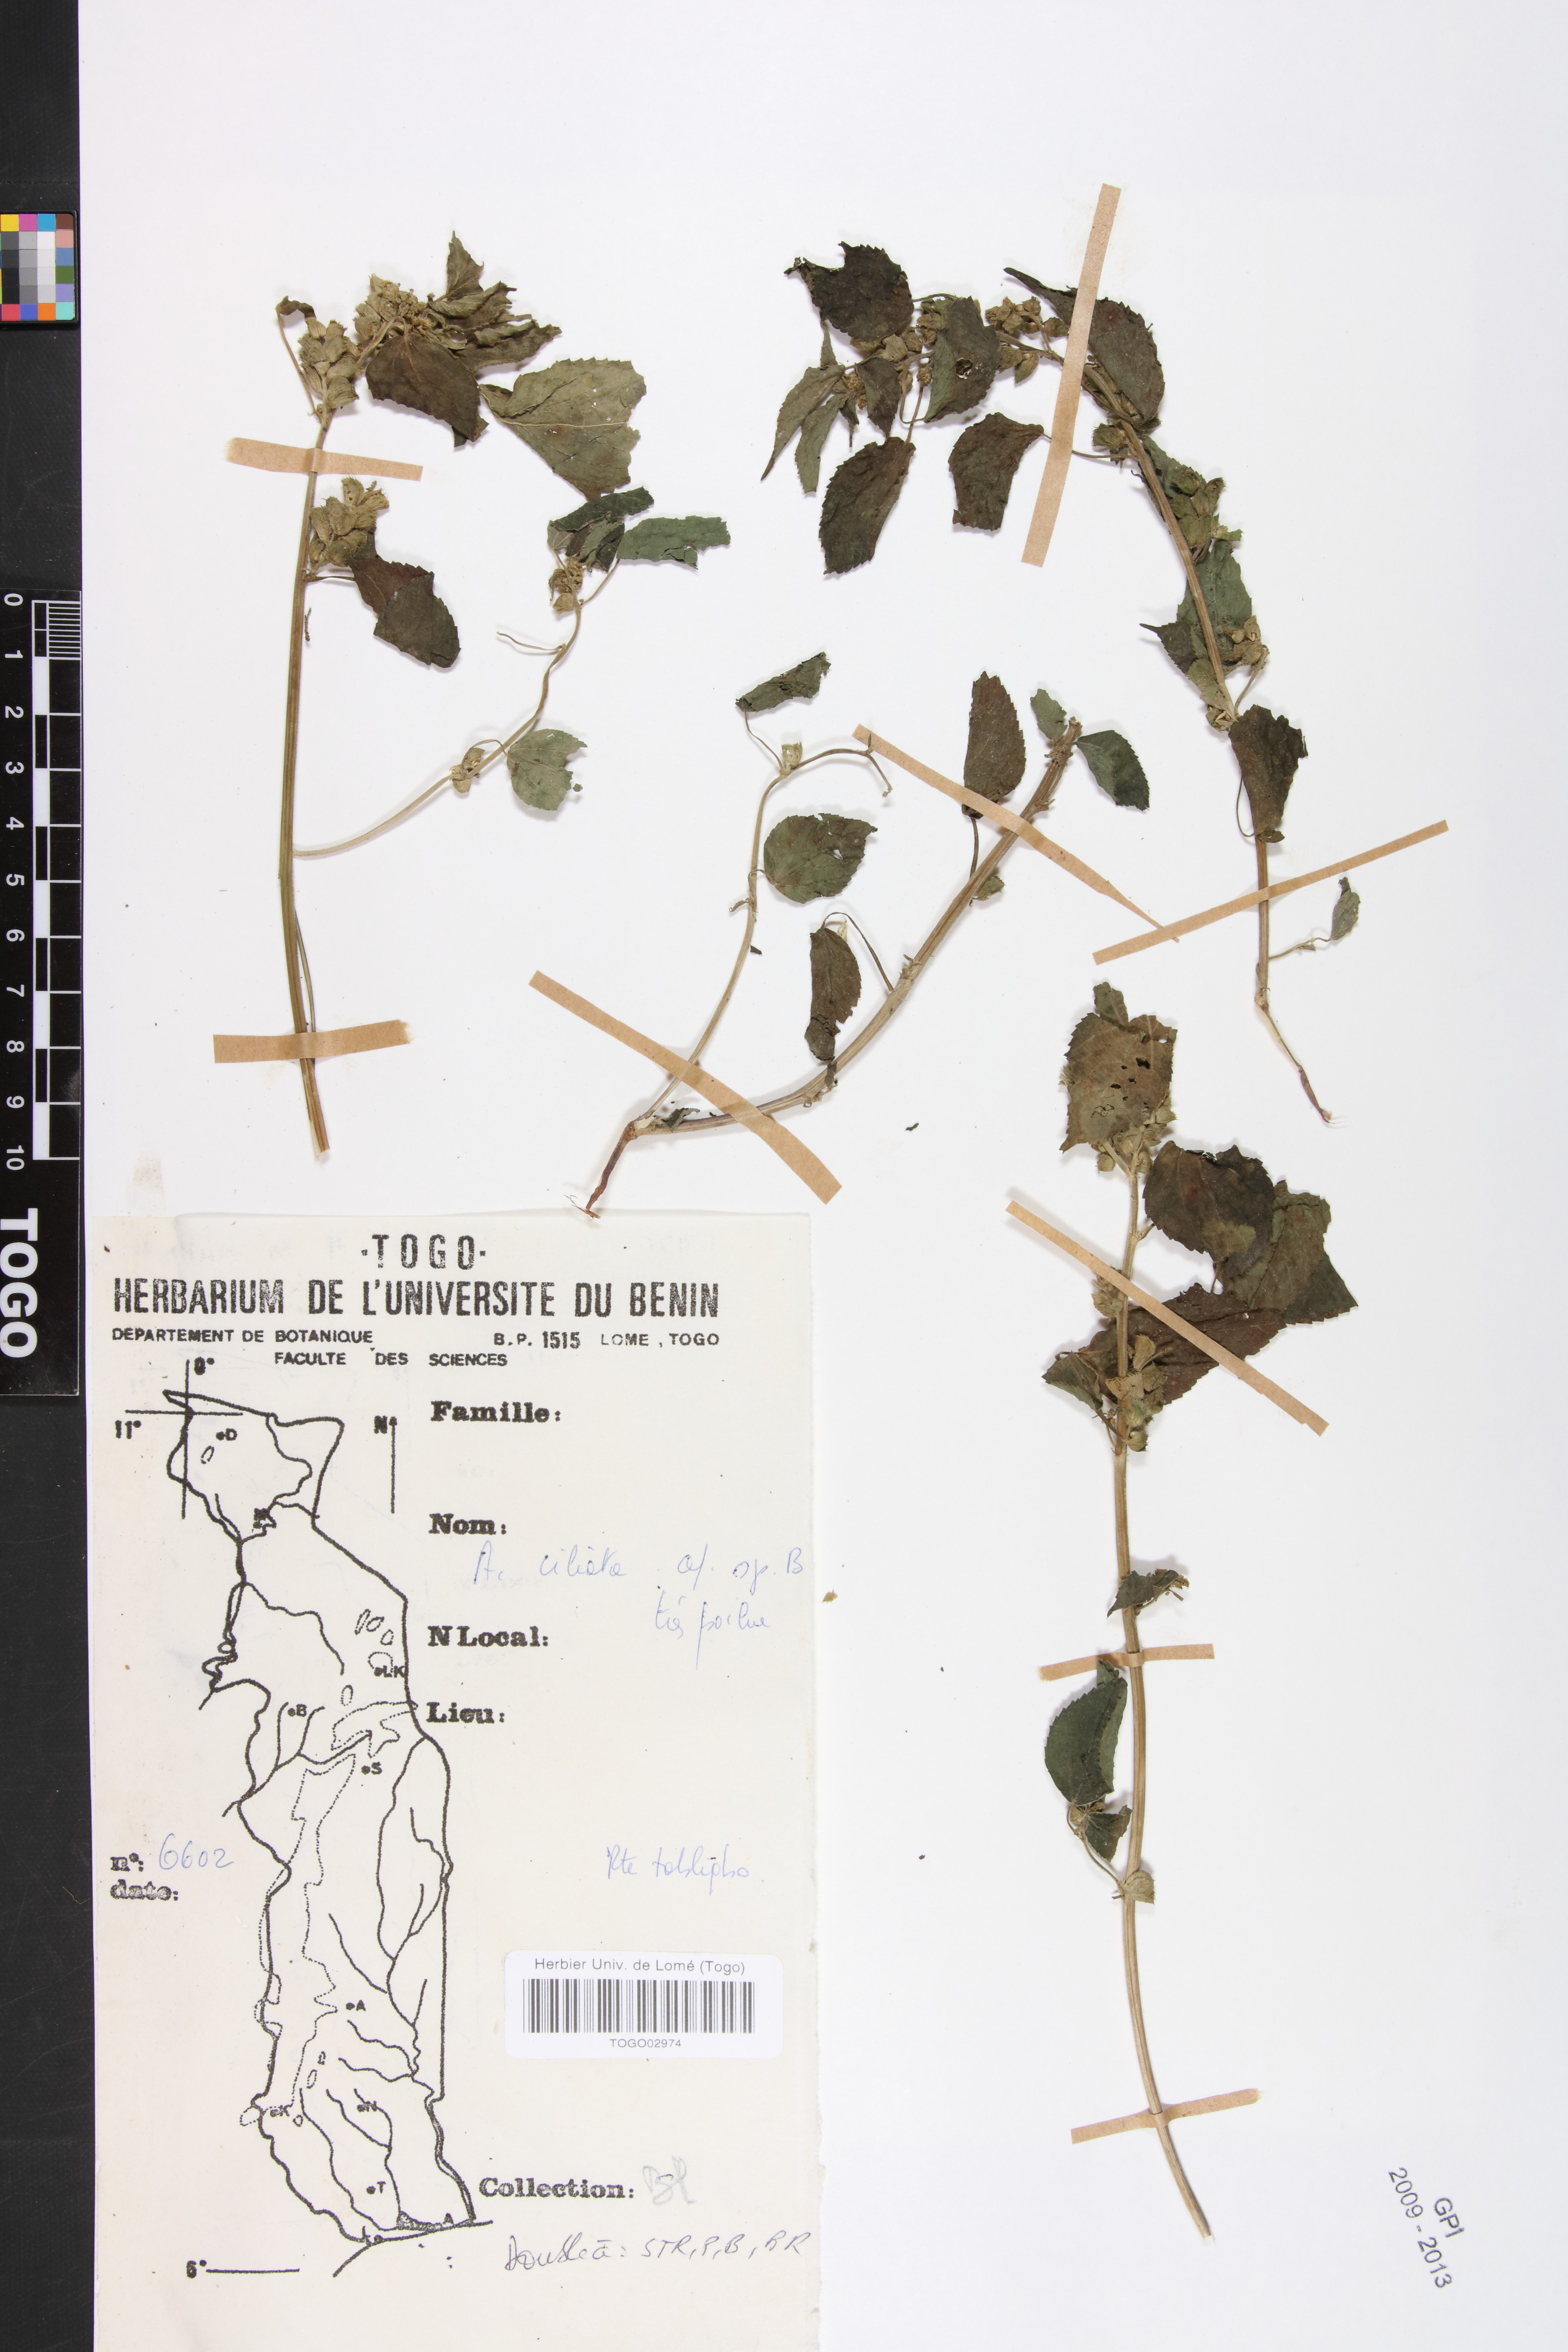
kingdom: Plantae
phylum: Tracheophyta
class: Magnoliopsida
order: Malpighiales
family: Phyllanthaceae
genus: Maesobotrya
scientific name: Maesobotrya
